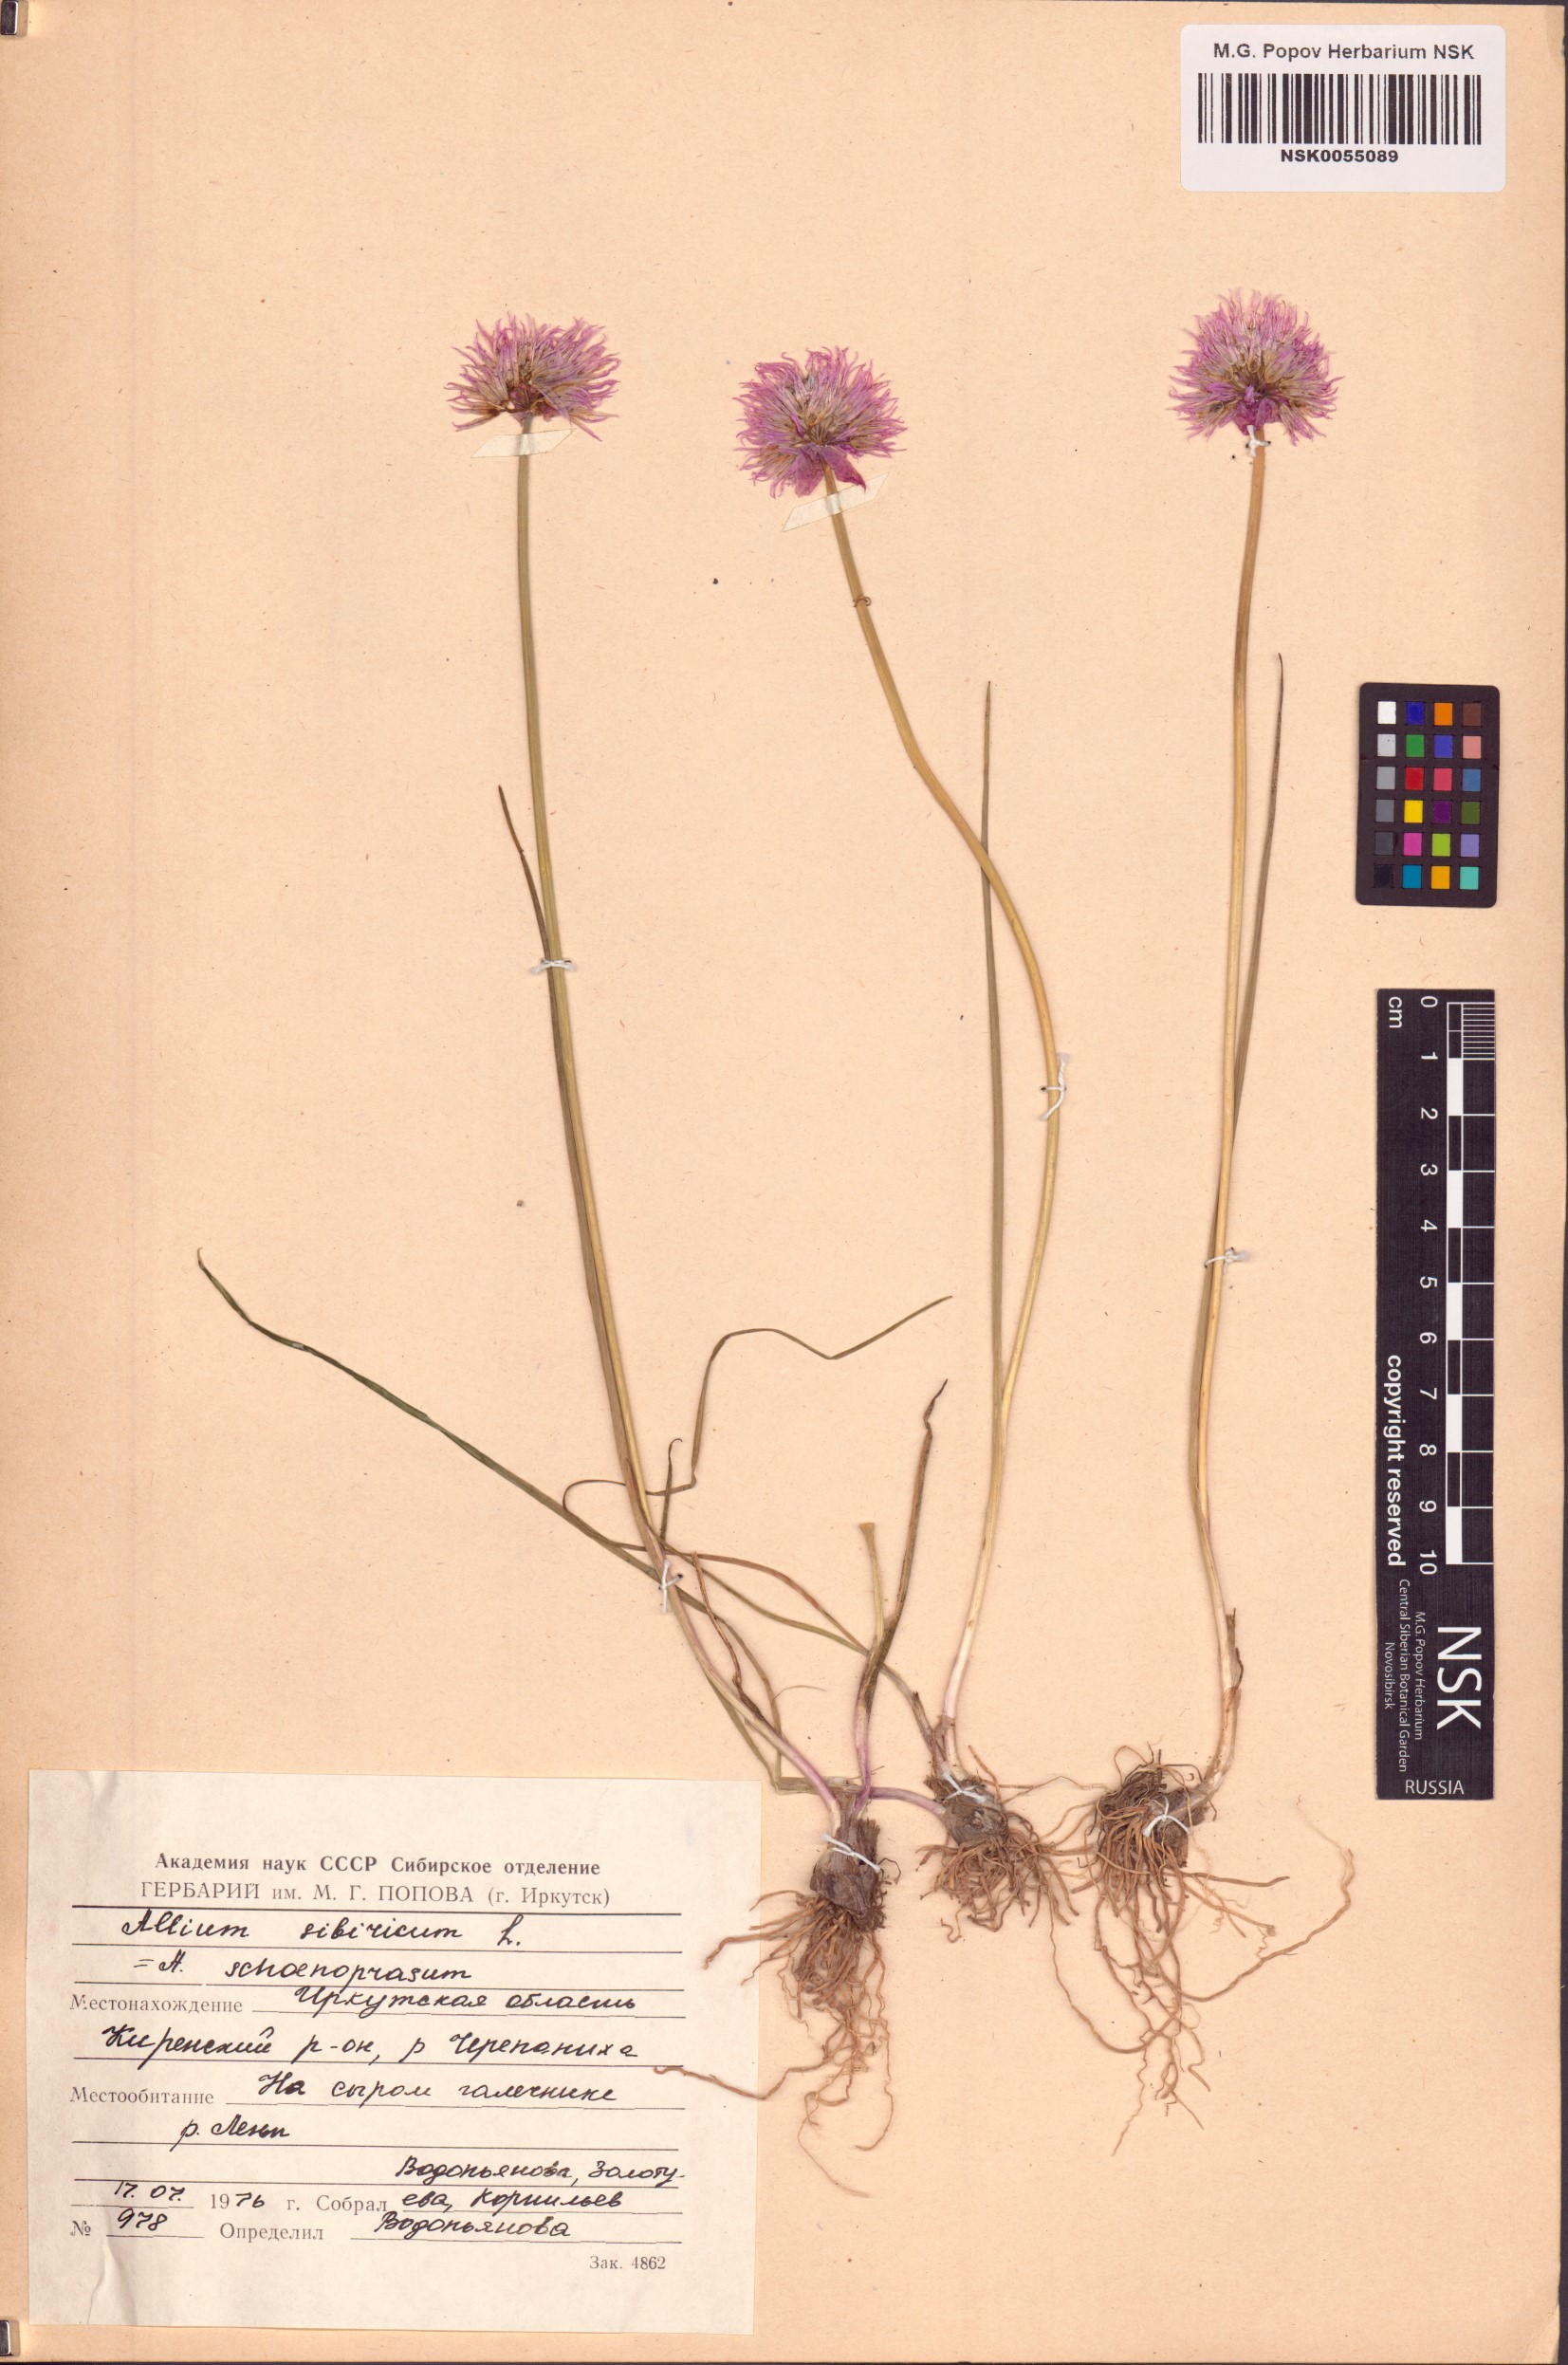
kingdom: Plantae
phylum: Tracheophyta
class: Liliopsida
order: Asparagales
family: Amaryllidaceae
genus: Allium
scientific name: Allium schoenoprasum
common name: Chives
